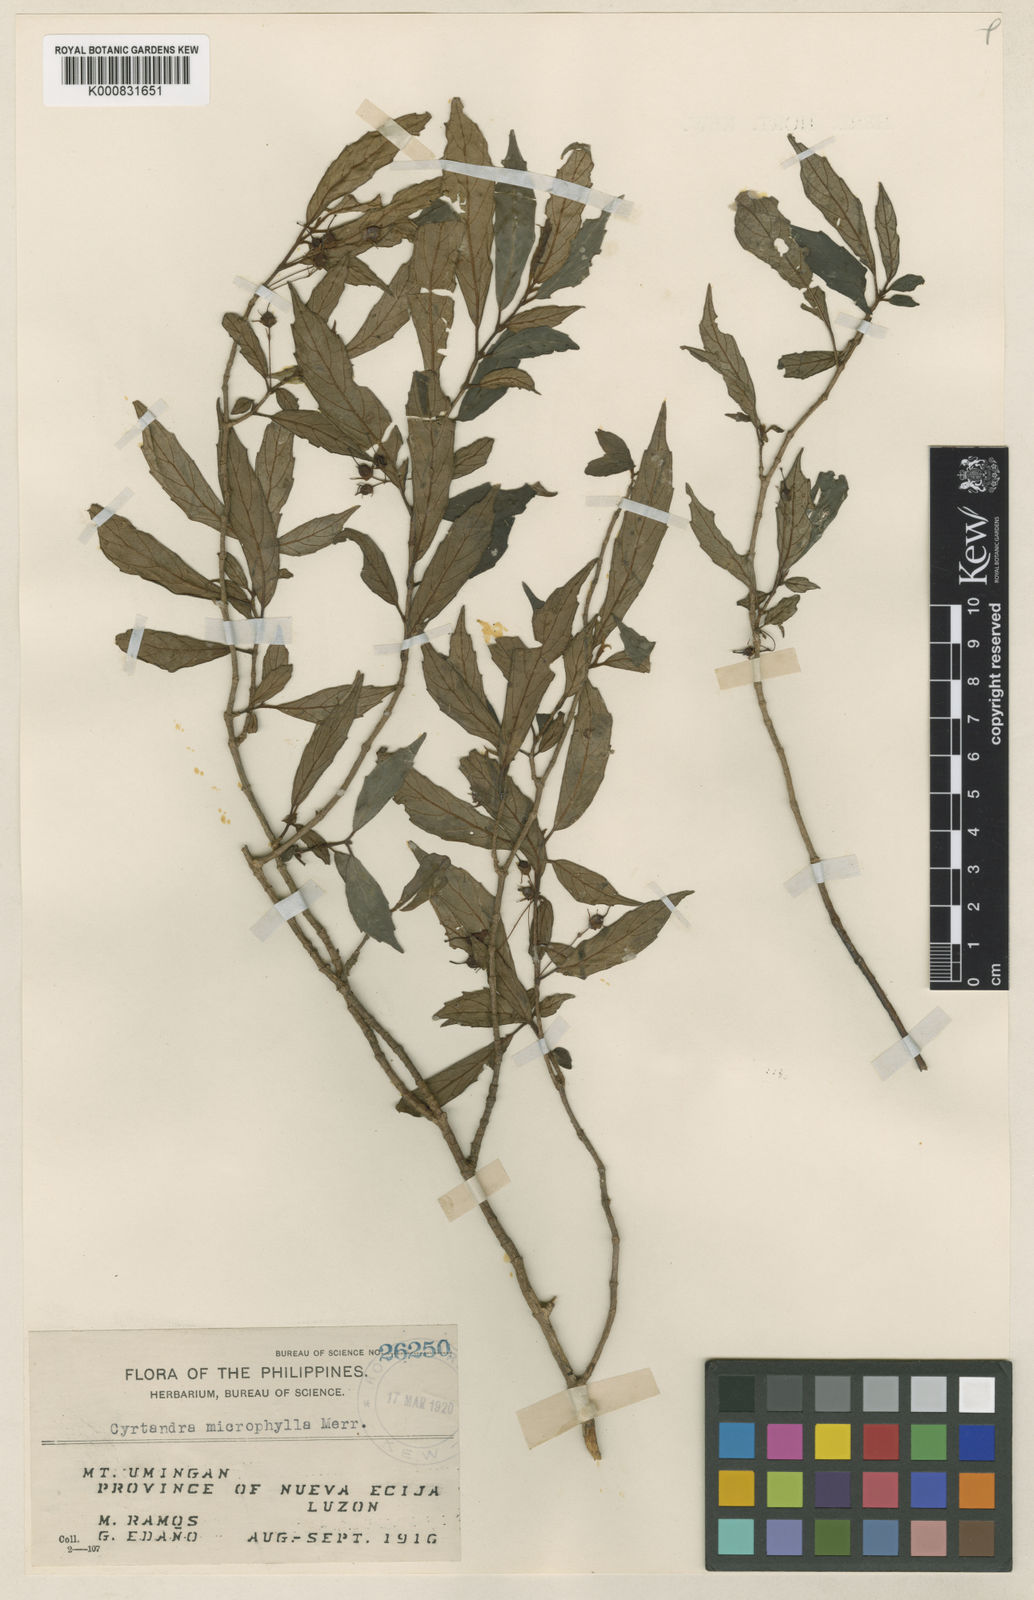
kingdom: Plantae
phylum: Tracheophyta
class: Magnoliopsida
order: Lamiales
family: Gesneriaceae
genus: Cyrtandra
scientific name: Cyrtandra microphylla
